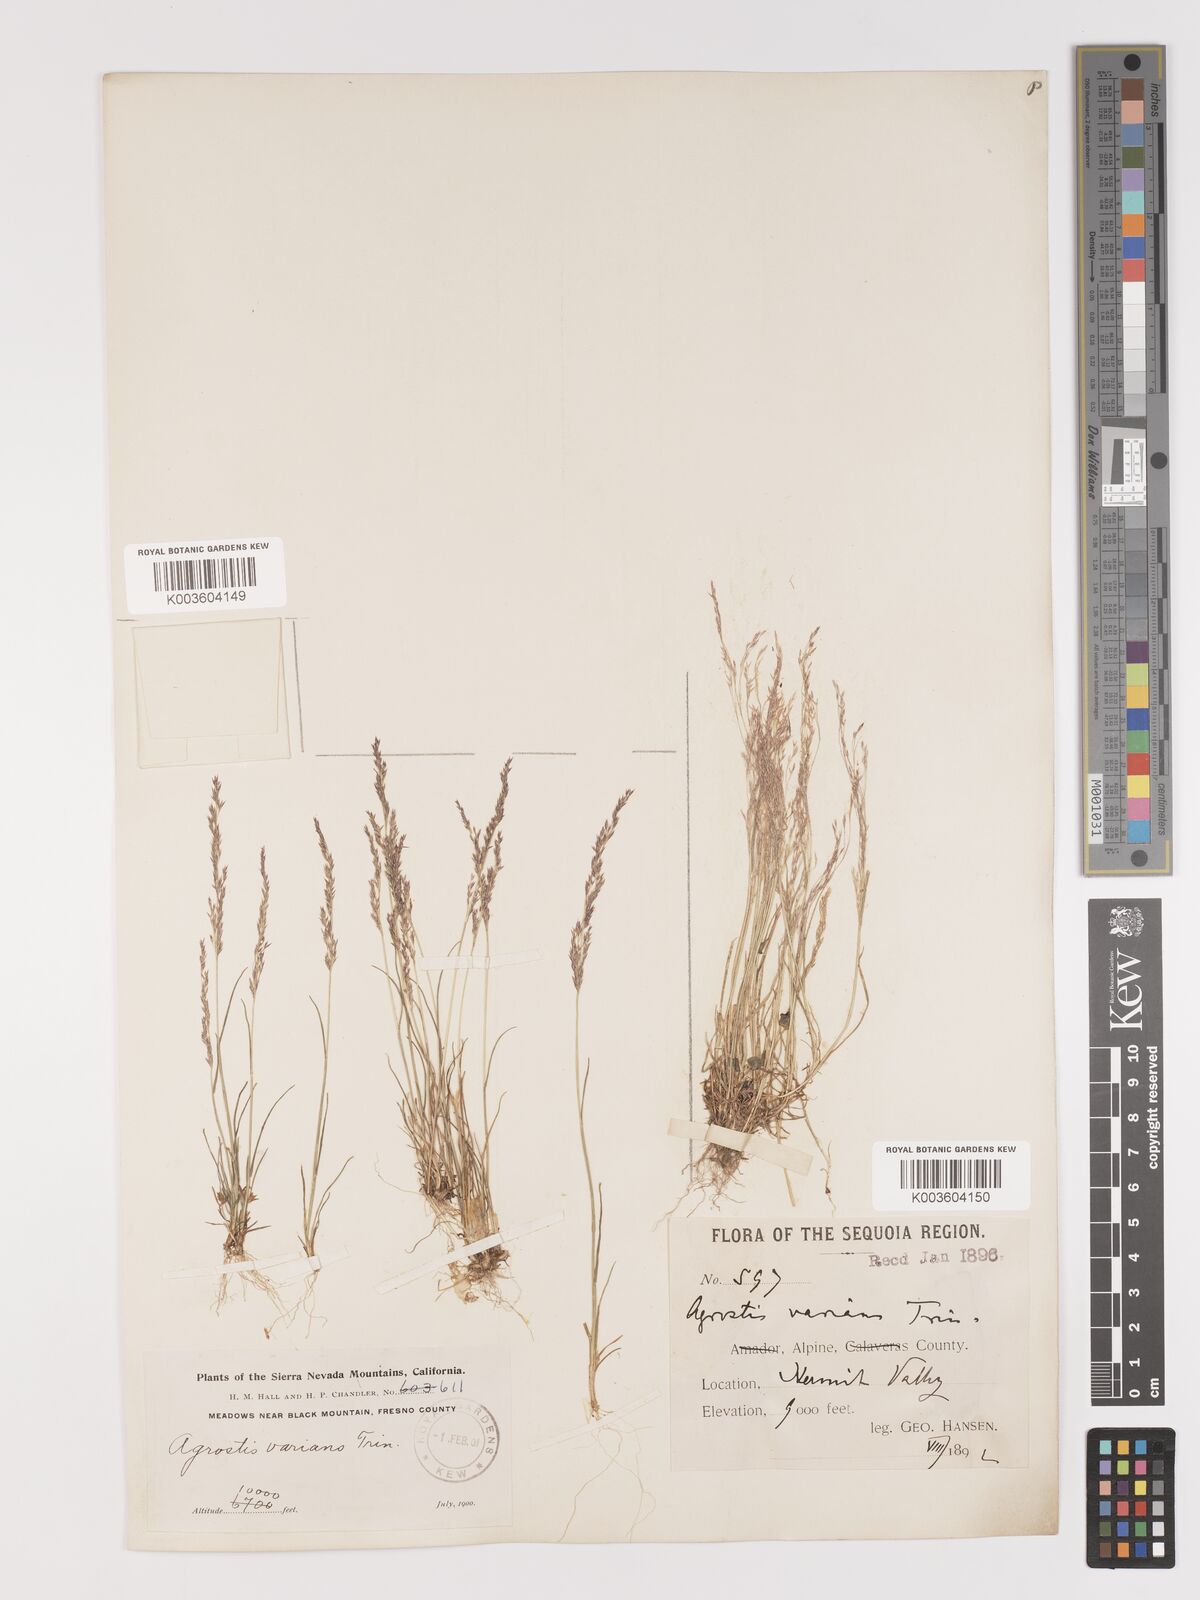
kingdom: Plantae
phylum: Tracheophyta
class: Liliopsida
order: Poales
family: Poaceae
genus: Agrostis
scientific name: Agrostis rossiae
